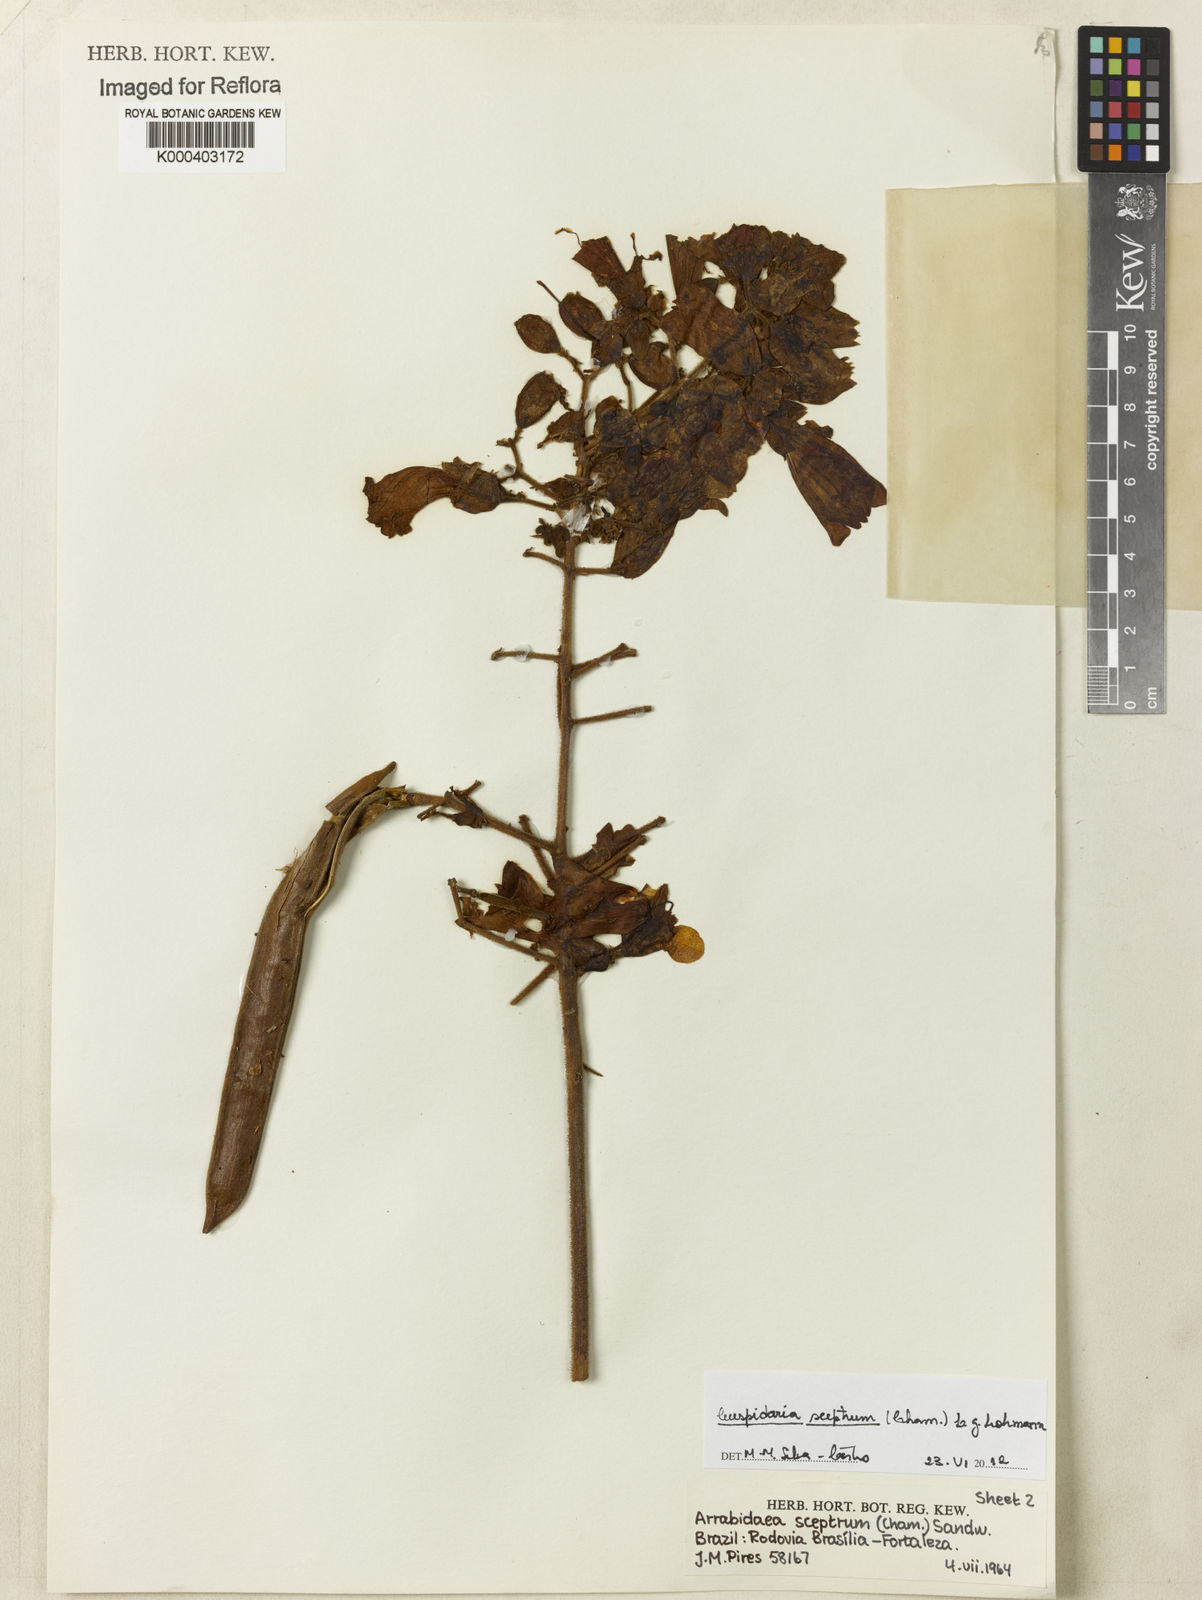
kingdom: Plantae
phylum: Tracheophyta
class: Magnoliopsida
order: Lamiales
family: Bignoniaceae
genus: Cuspidaria
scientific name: Cuspidaria
